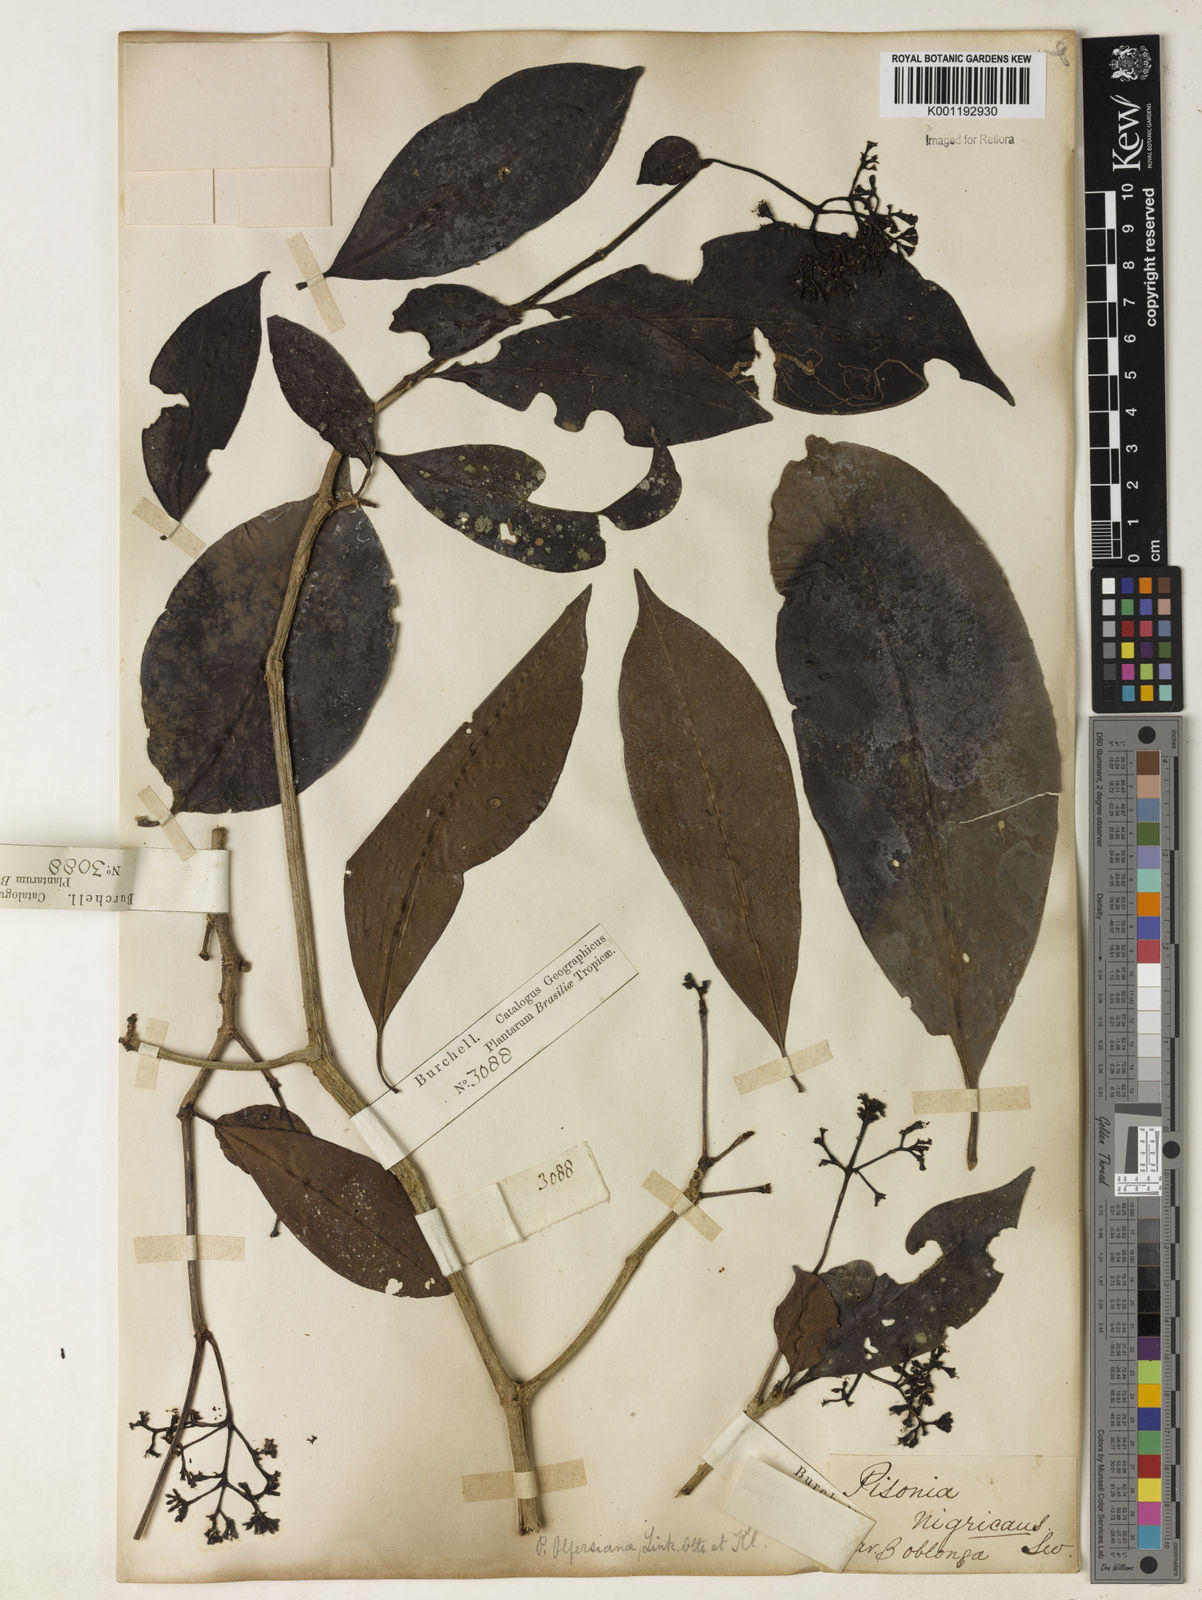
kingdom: Plantae
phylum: Tracheophyta
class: Magnoliopsida
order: Caryophyllales
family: Nyctaginaceae
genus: Guapira
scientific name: Guapira
